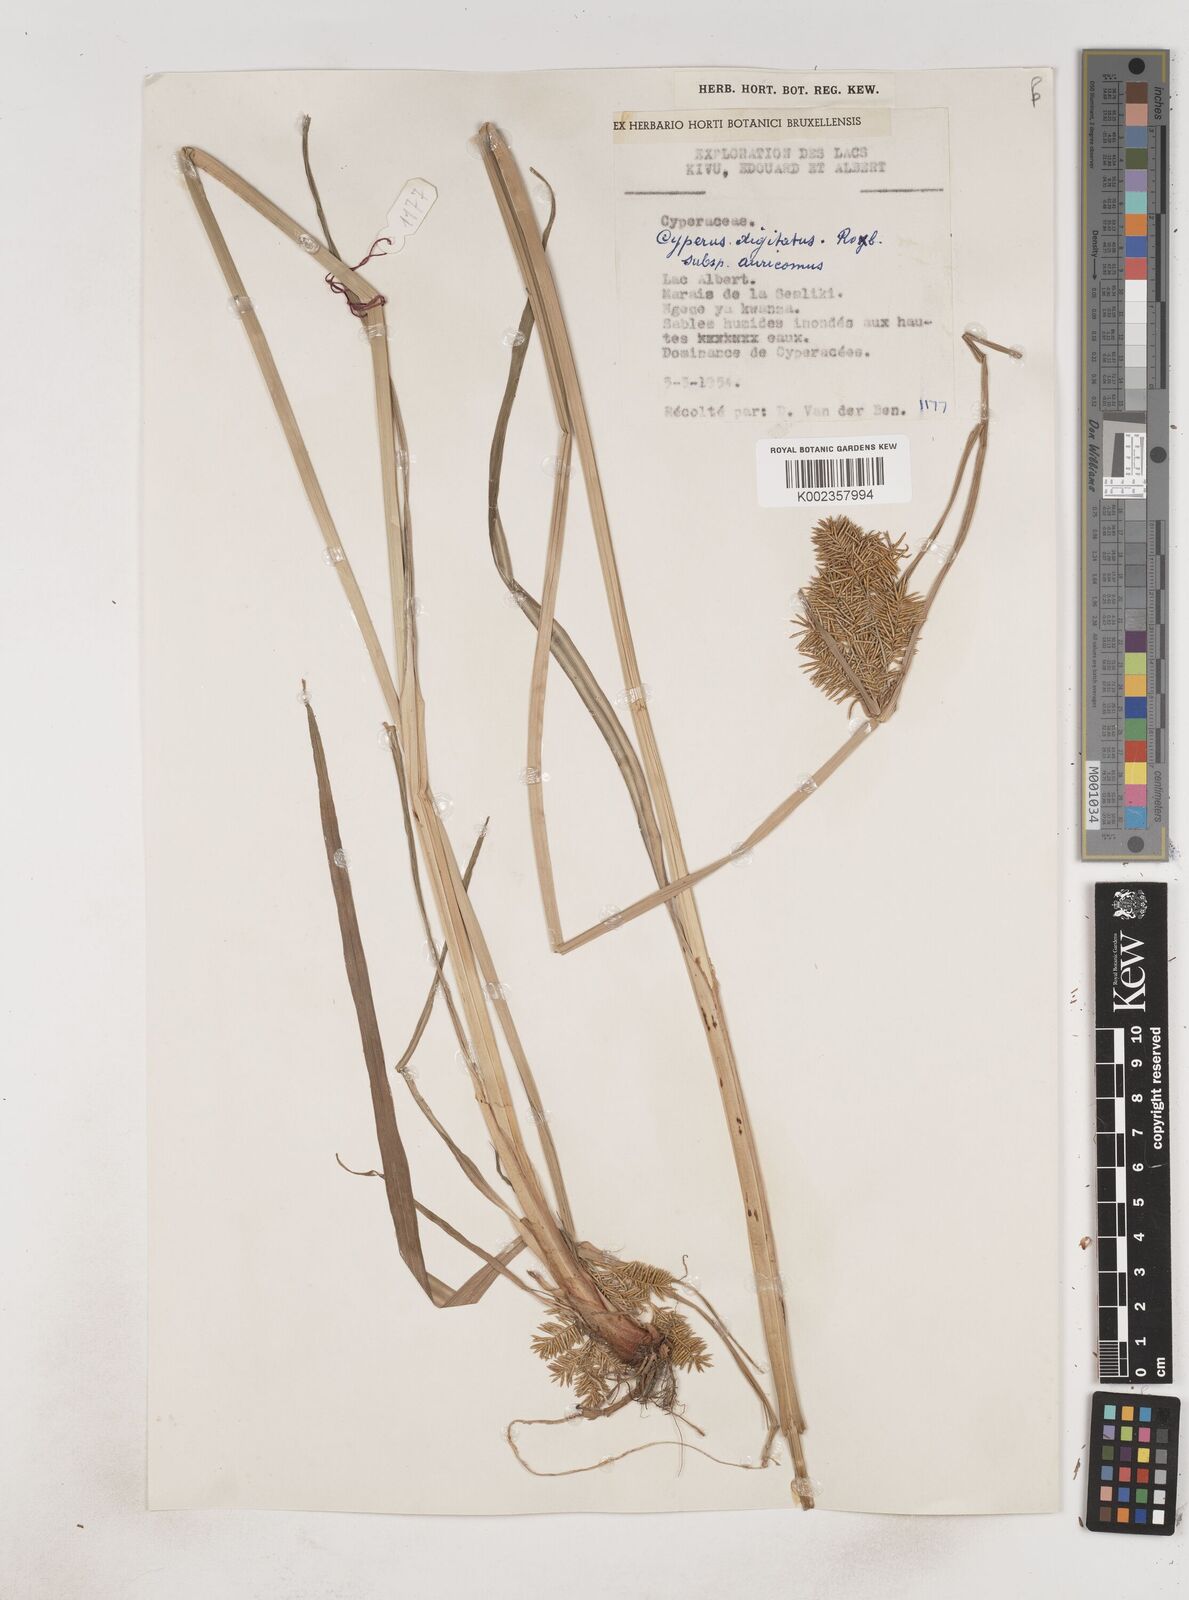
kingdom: Plantae
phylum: Tracheophyta
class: Liliopsida
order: Poales
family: Cyperaceae
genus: Cyperus
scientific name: Cyperus digitatus
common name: Finger flatsedge
